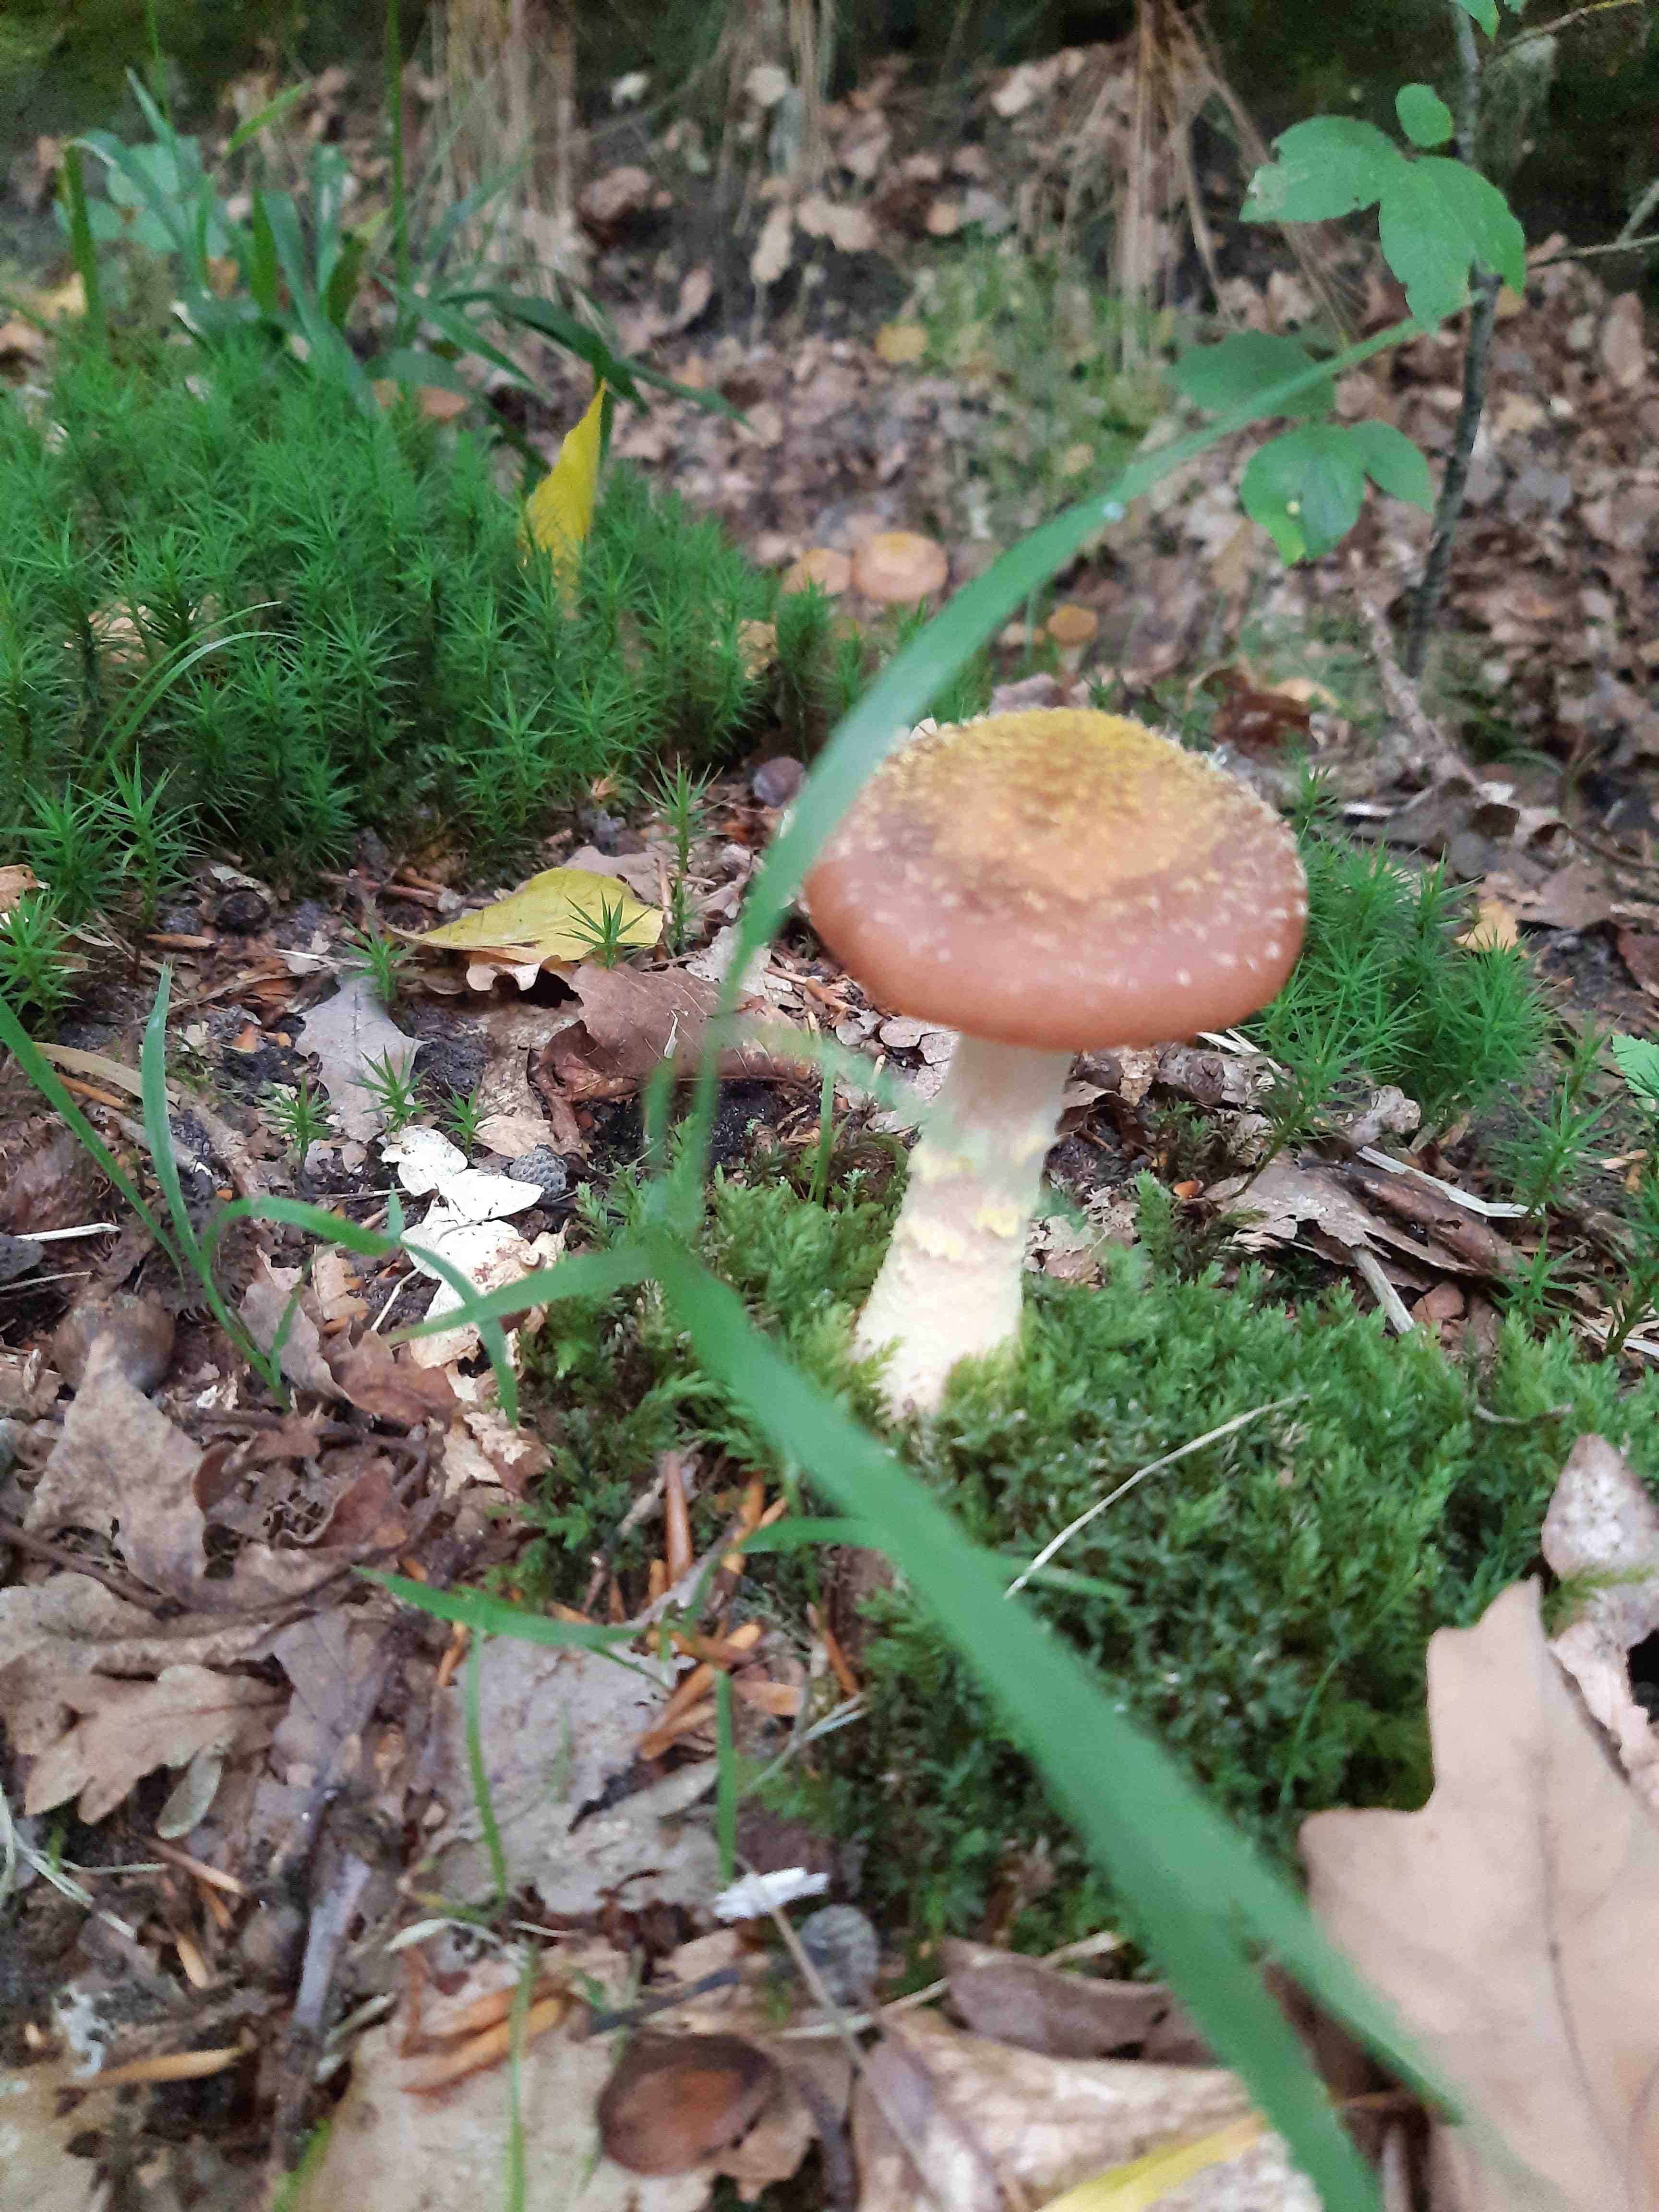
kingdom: Fungi
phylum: Basidiomycota
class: Agaricomycetes
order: Agaricales
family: Physalacriaceae
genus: Armillaria
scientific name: Armillaria lutea
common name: køllestokket honningsvamp
